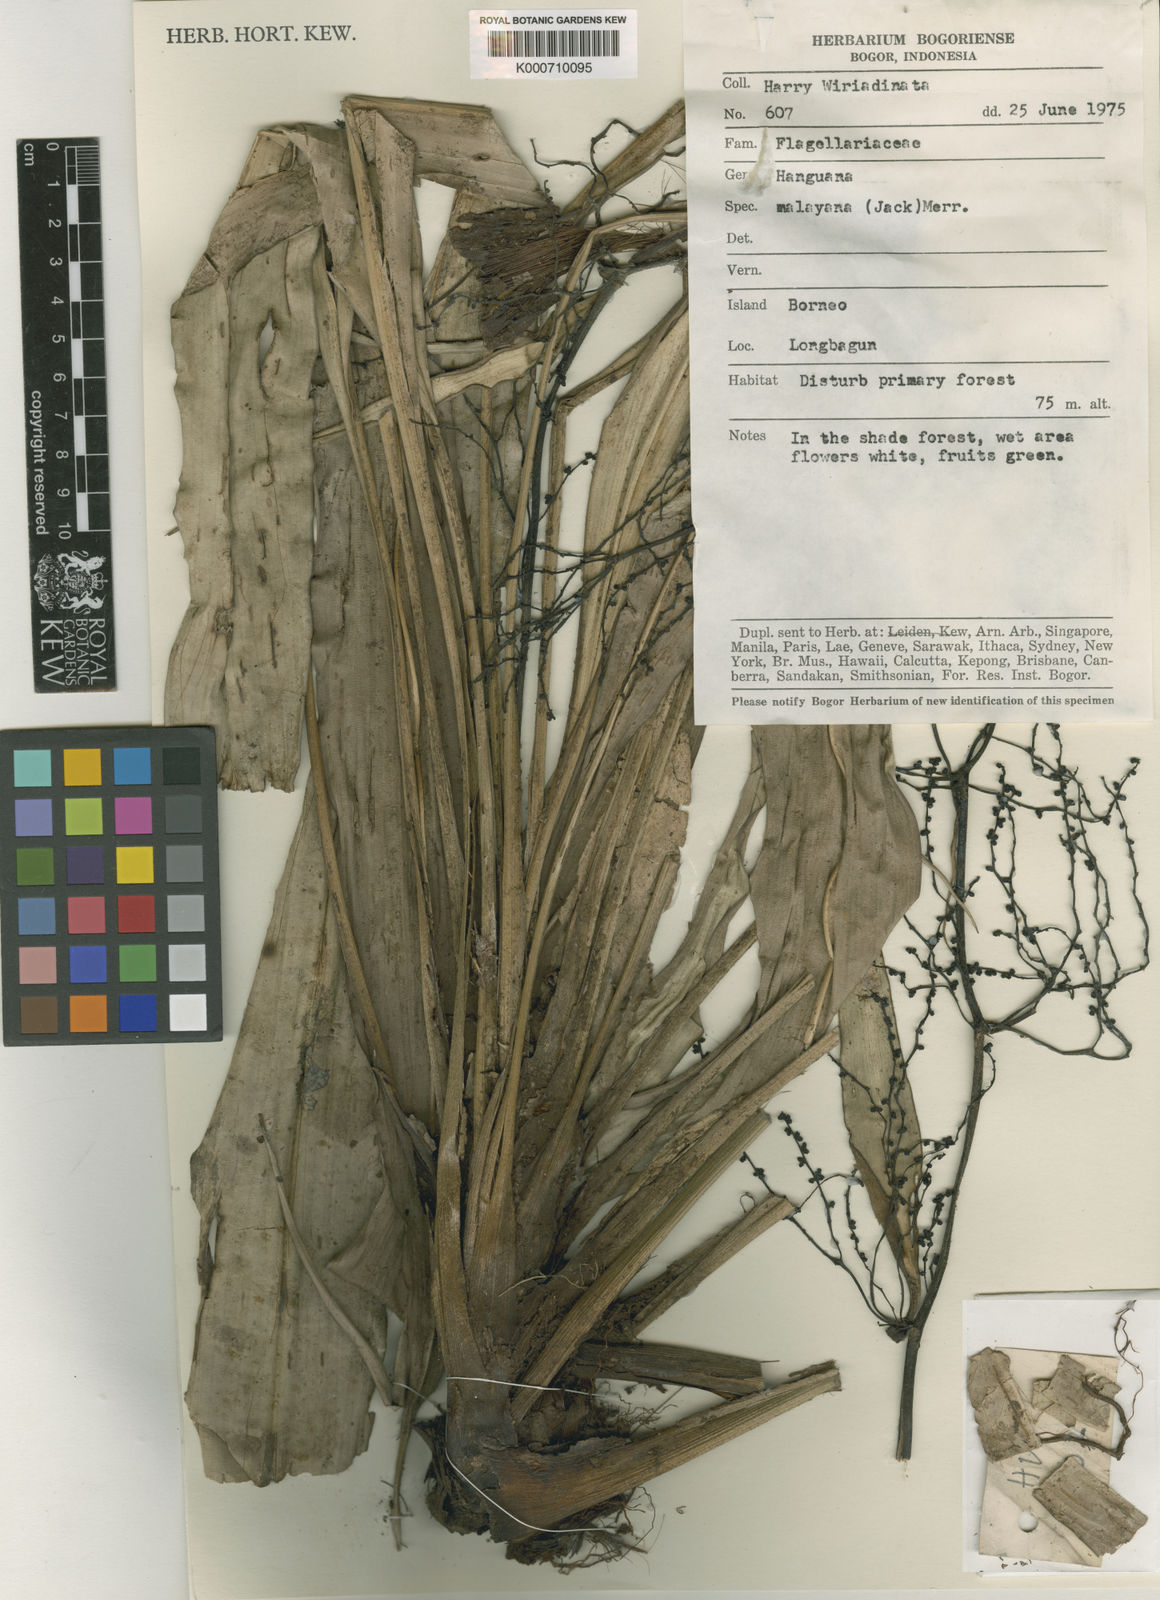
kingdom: Plantae
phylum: Tracheophyta
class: Liliopsida
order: Commelinales
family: Hanguanaceae
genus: Hanguana
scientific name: Hanguana malayana
